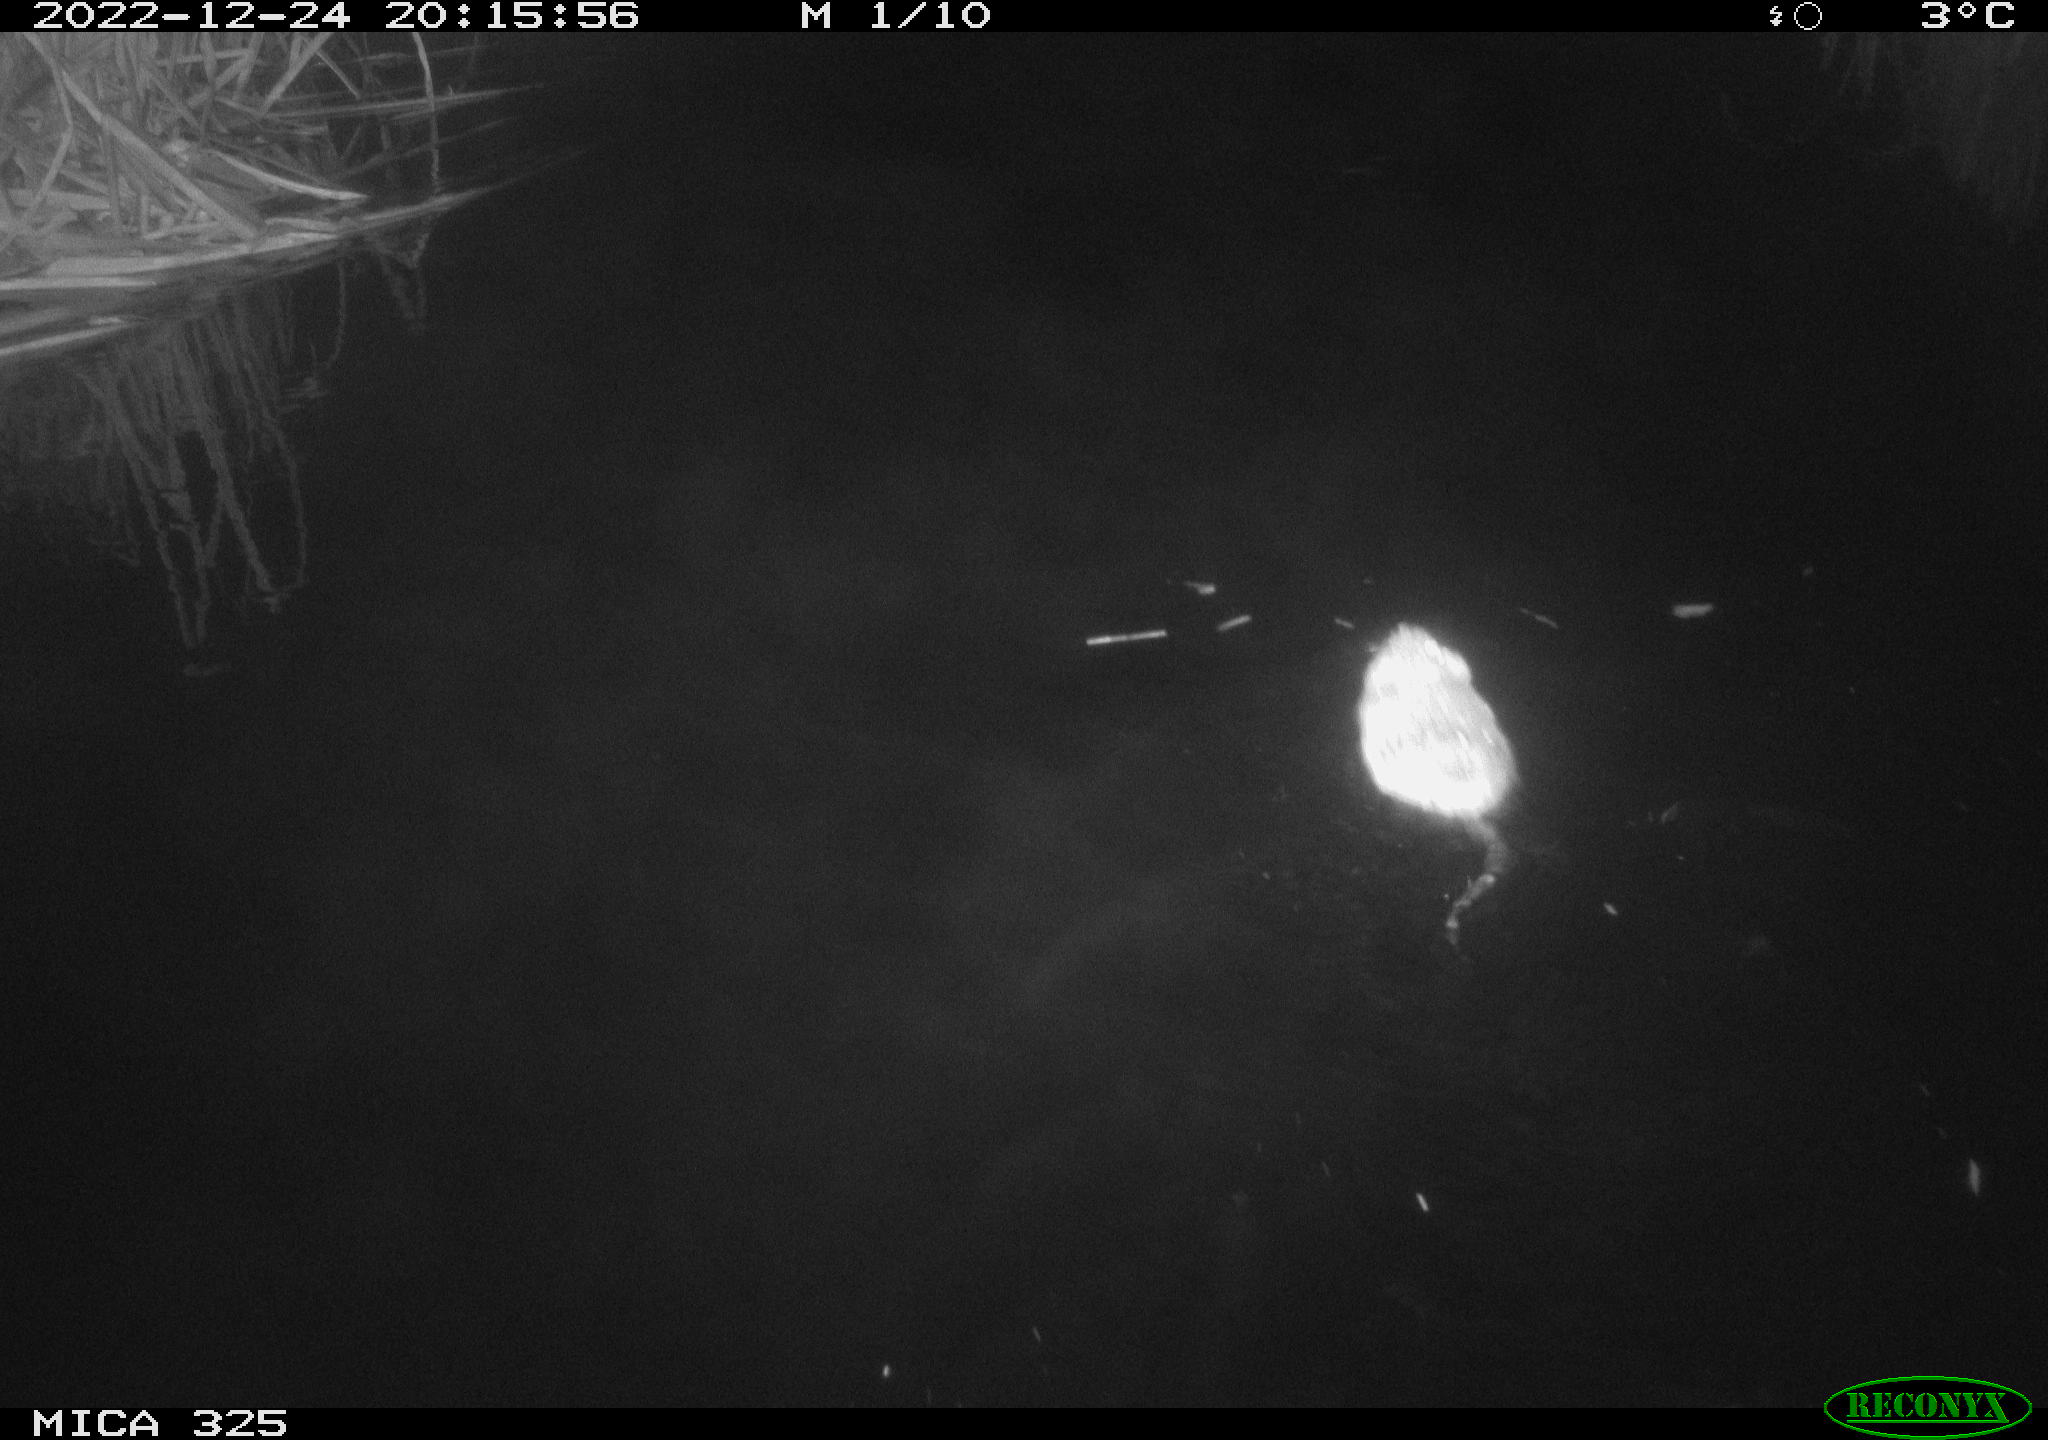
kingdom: Animalia
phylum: Chordata
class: Mammalia
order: Rodentia
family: Cricetidae
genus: Ondatra
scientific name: Ondatra zibethicus
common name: Muskrat
